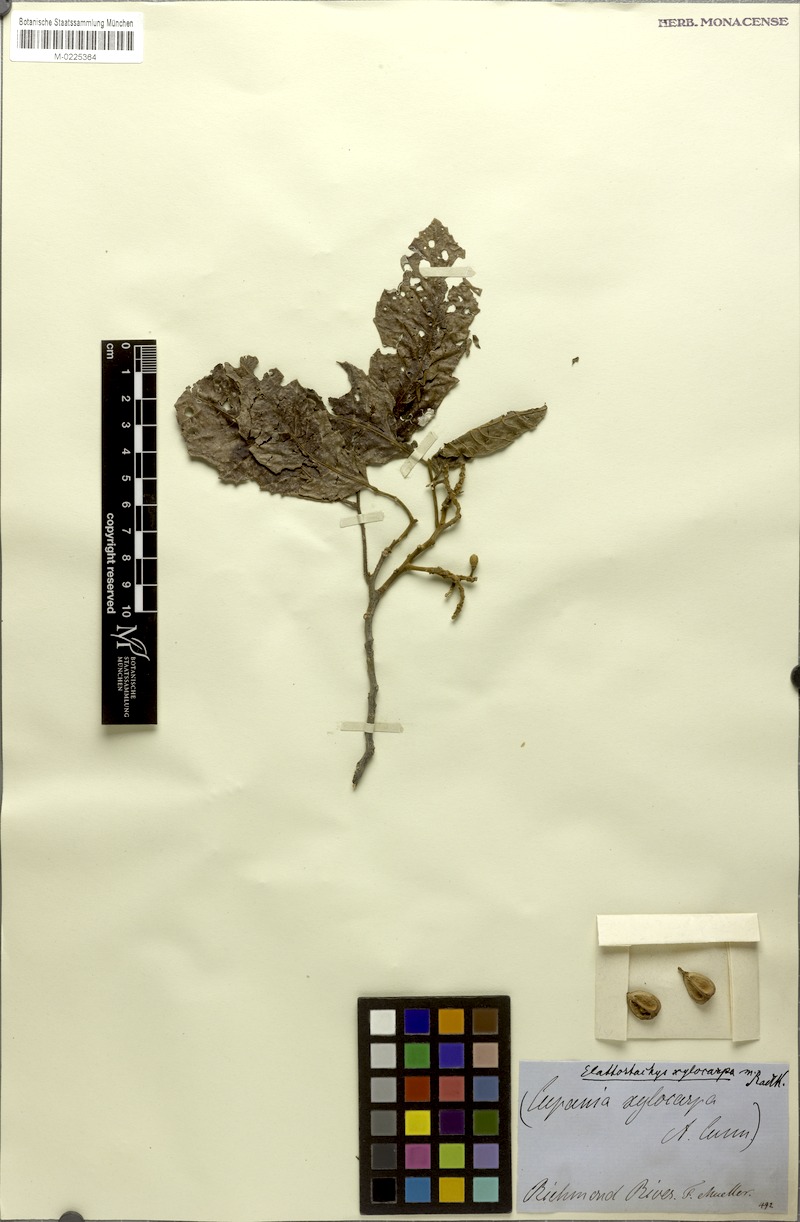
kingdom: Plantae
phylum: Tracheophyta
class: Magnoliopsida
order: Sapindales
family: Sapindaceae
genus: Elattostachys
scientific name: Elattostachys xylocarpa
